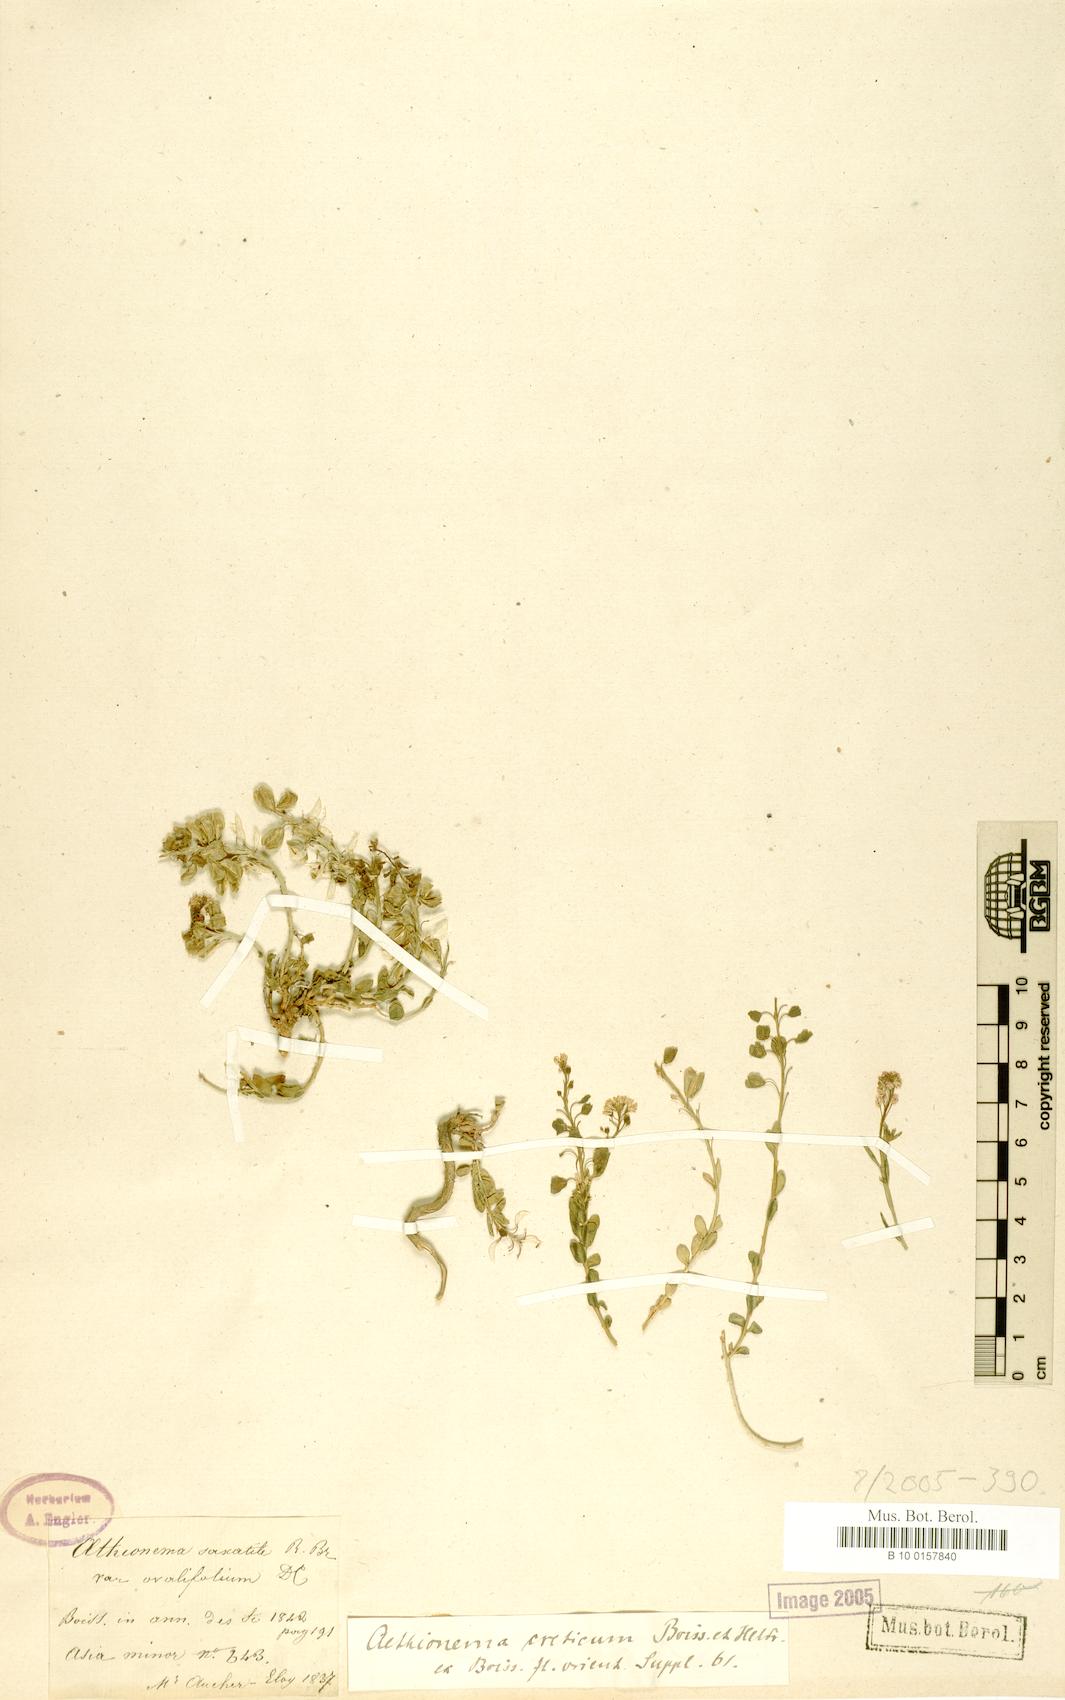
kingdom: Plantae
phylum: Tracheophyta
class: Magnoliopsida
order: Brassicales
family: Brassicaceae
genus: Aethionema
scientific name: Aethionema saxatile
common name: Burnt candytuft
